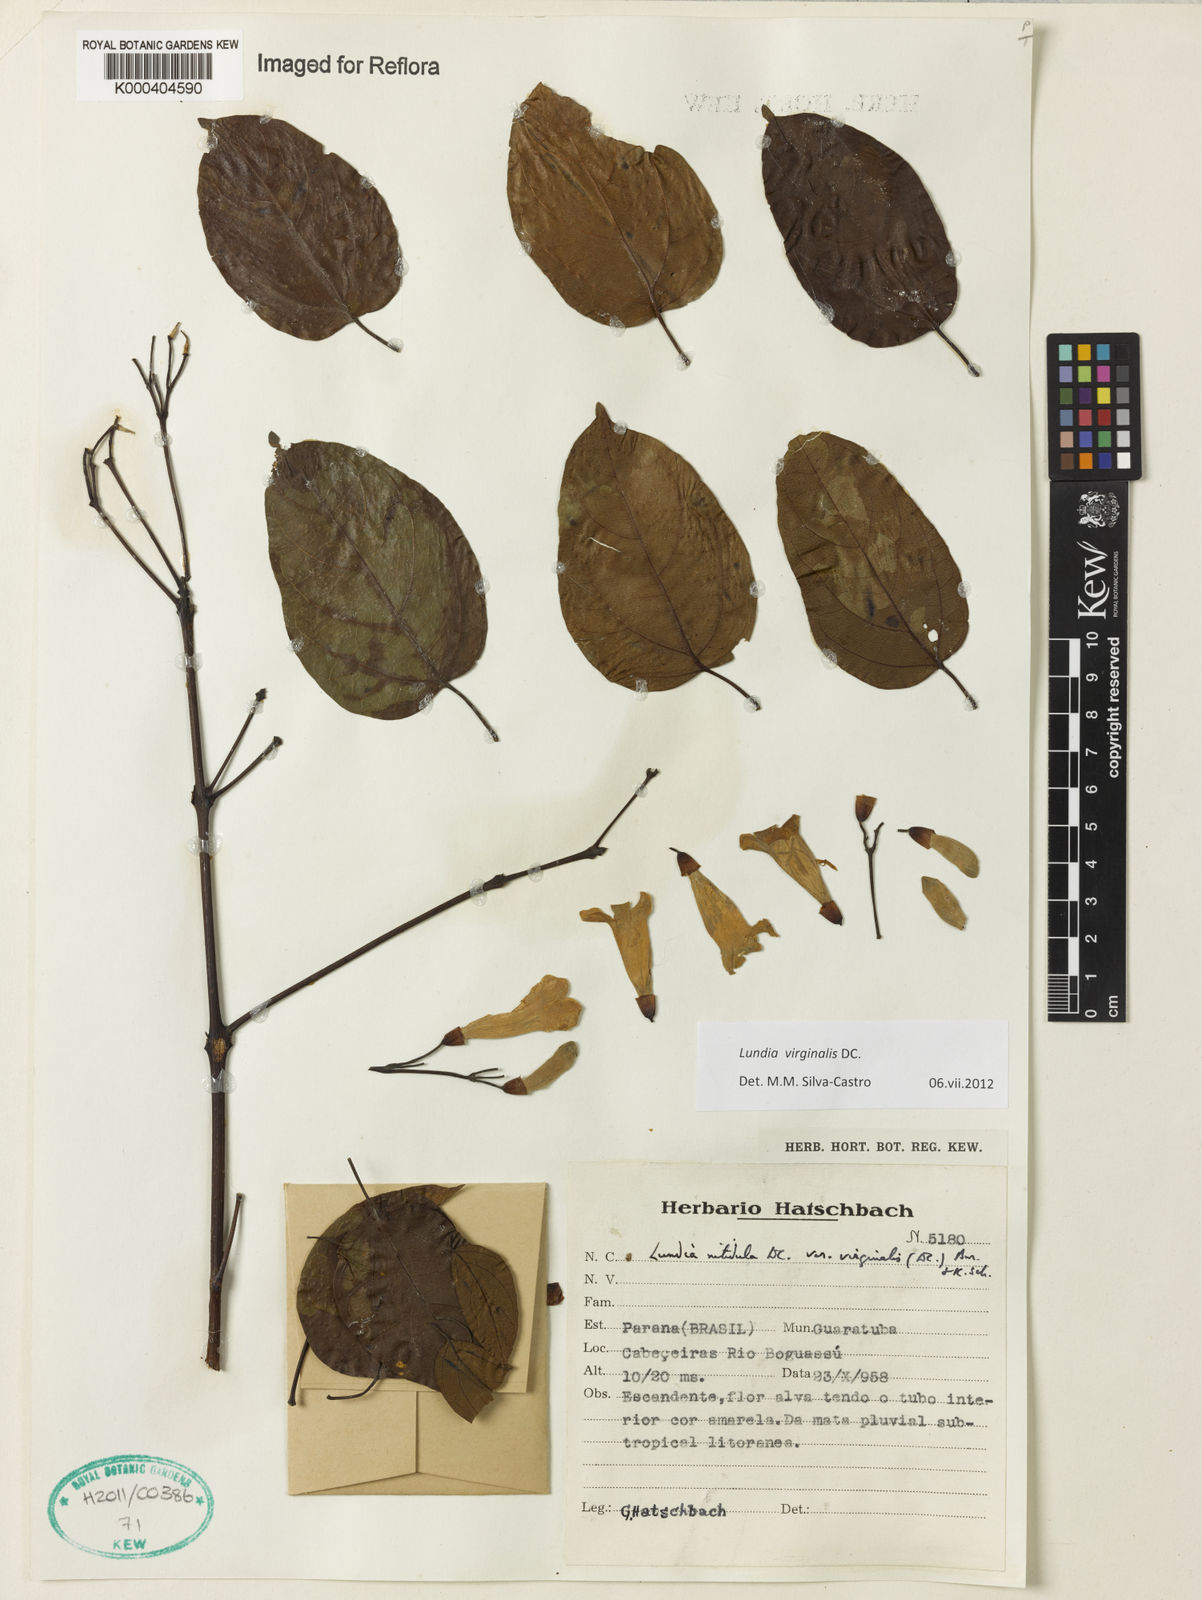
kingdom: Plantae
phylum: Tracheophyta
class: Magnoliopsida
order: Lamiales
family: Bignoniaceae
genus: Lundia
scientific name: Lundia virginalis
